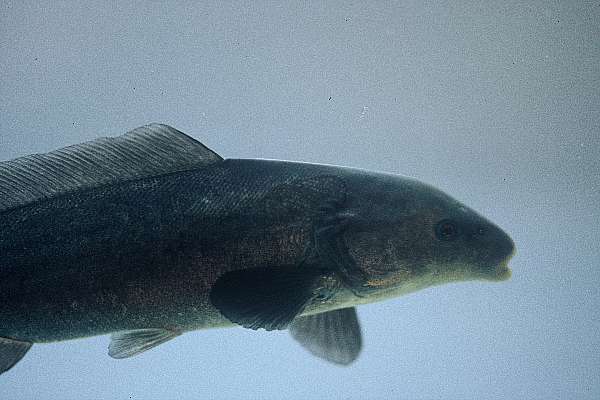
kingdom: Animalia
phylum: Chordata
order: Osteoglossiformes
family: Mormyridae
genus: Mormyrus
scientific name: Mormyrus lacerda
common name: Western bottlenose
